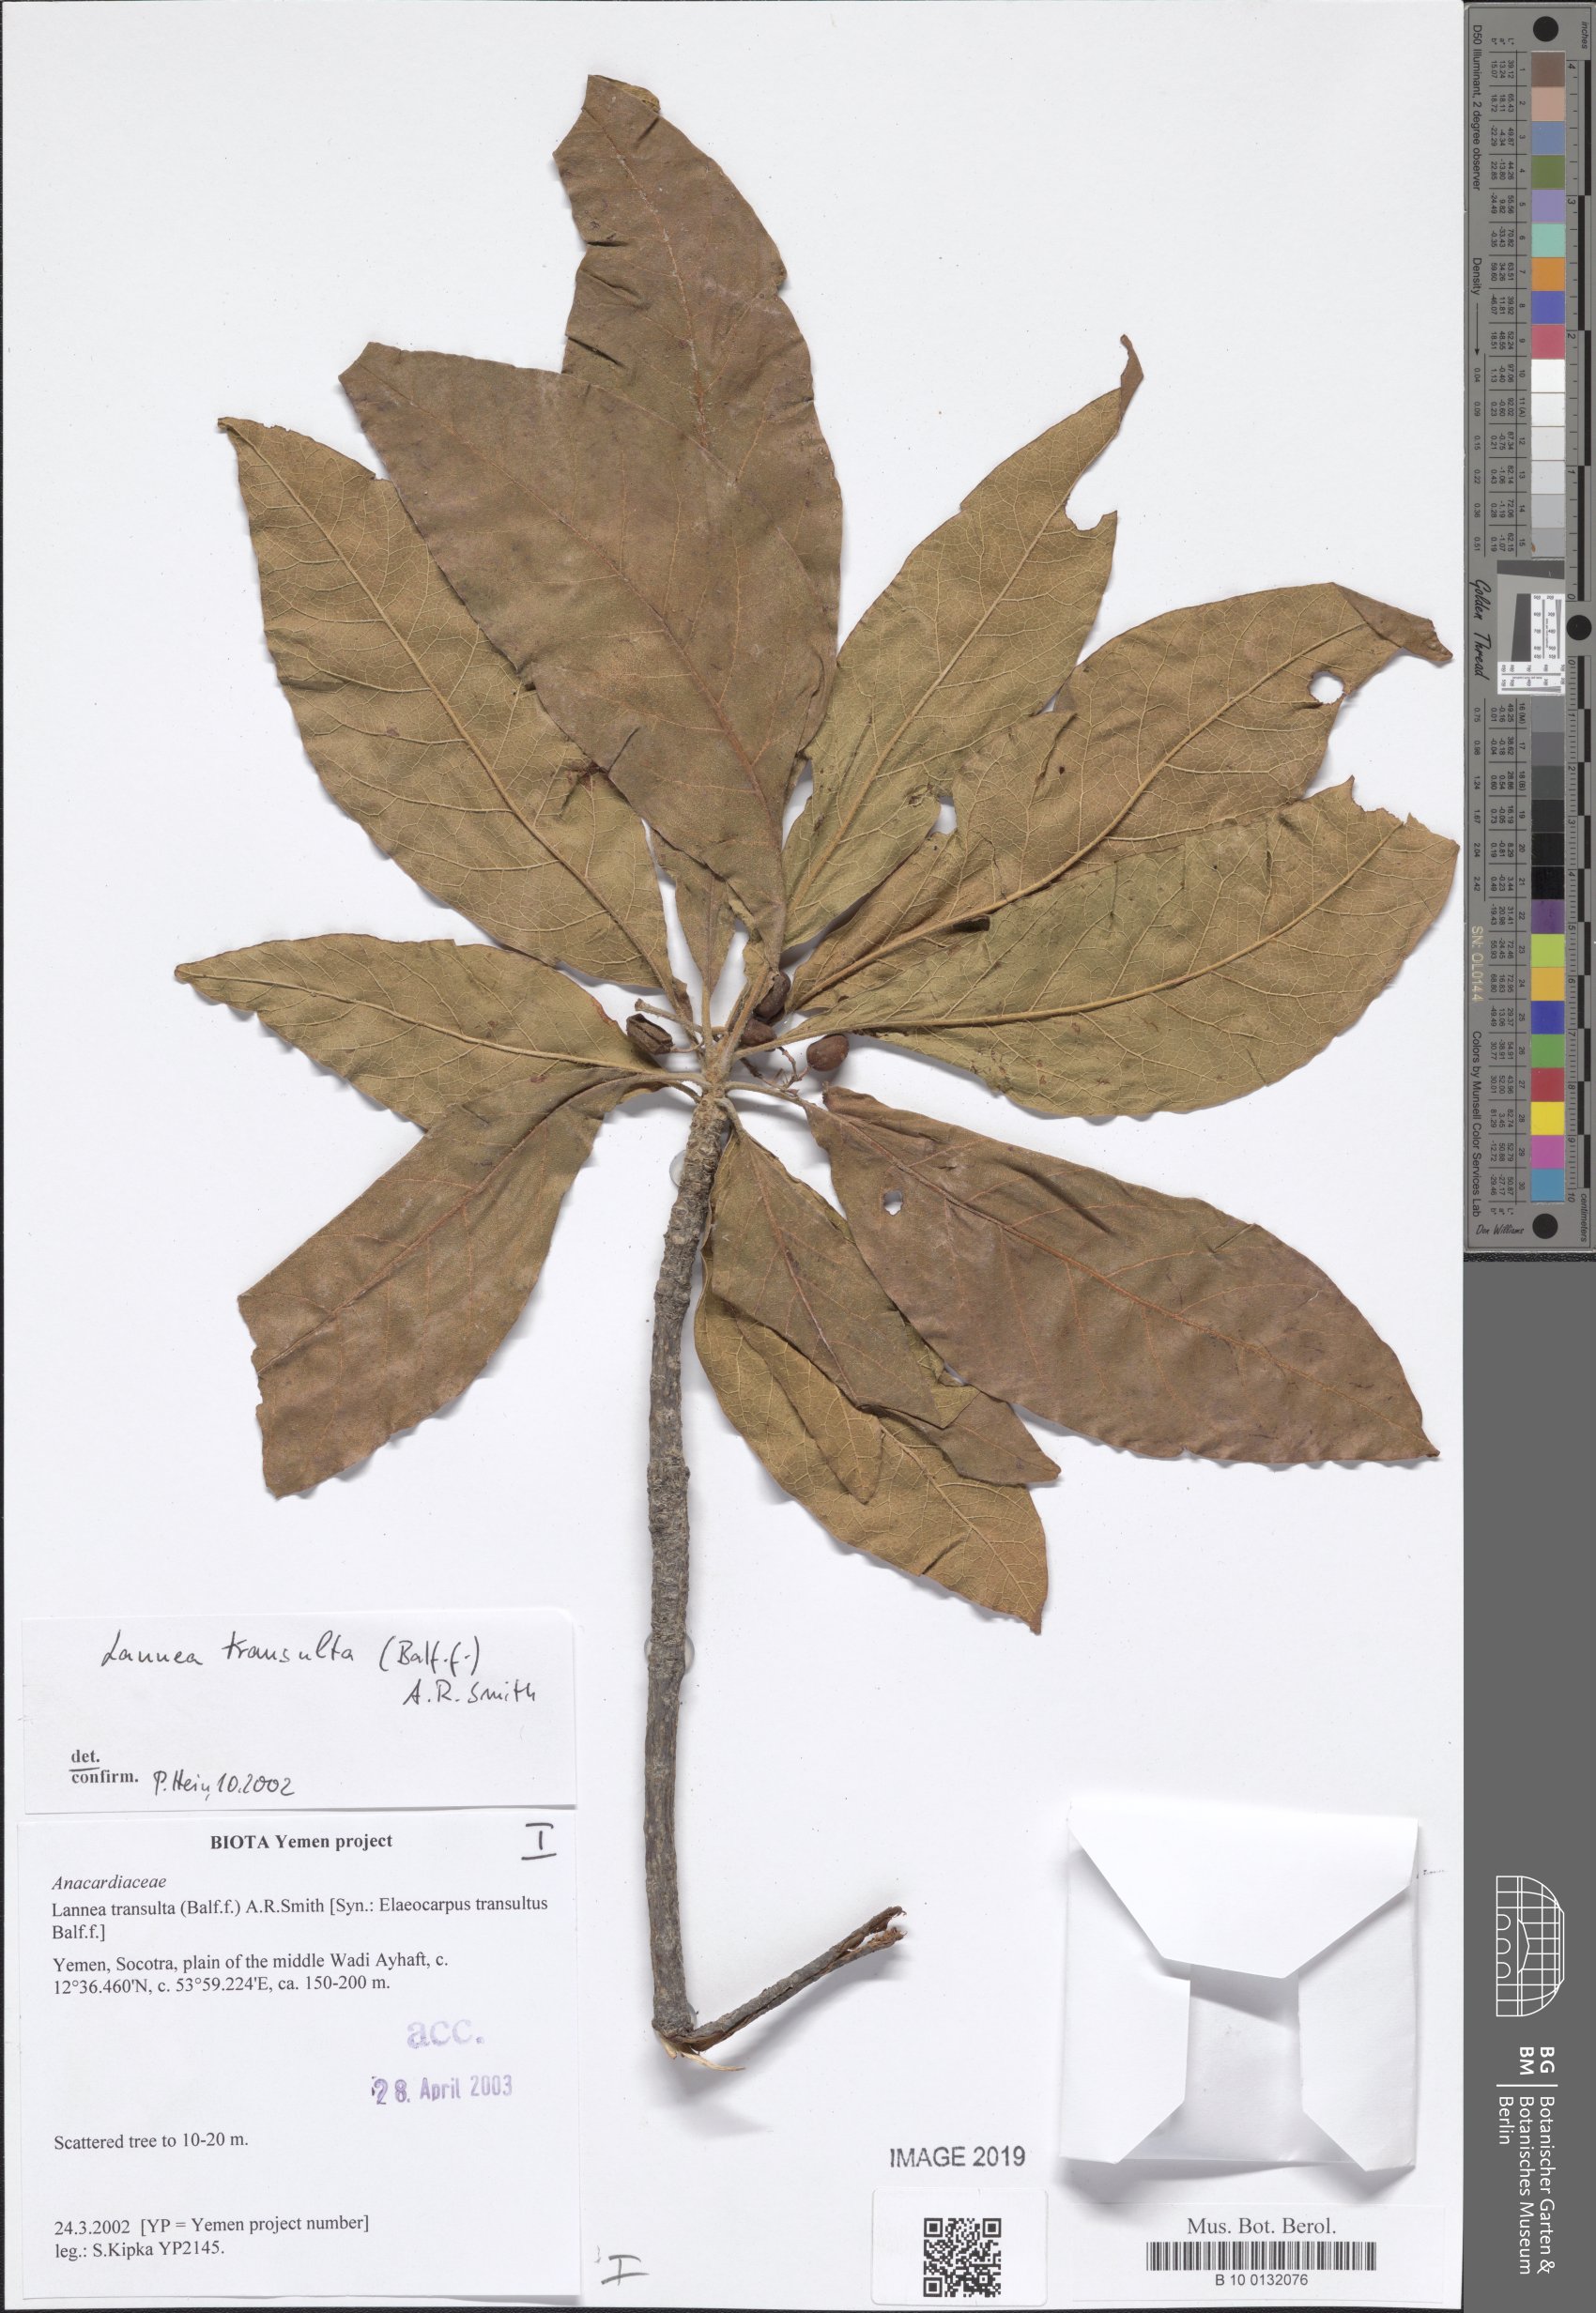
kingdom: Plantae
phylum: Tracheophyta
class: Magnoliopsida
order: Sapindales
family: Anacardiaceae
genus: Lannea
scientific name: Lannea transulta
